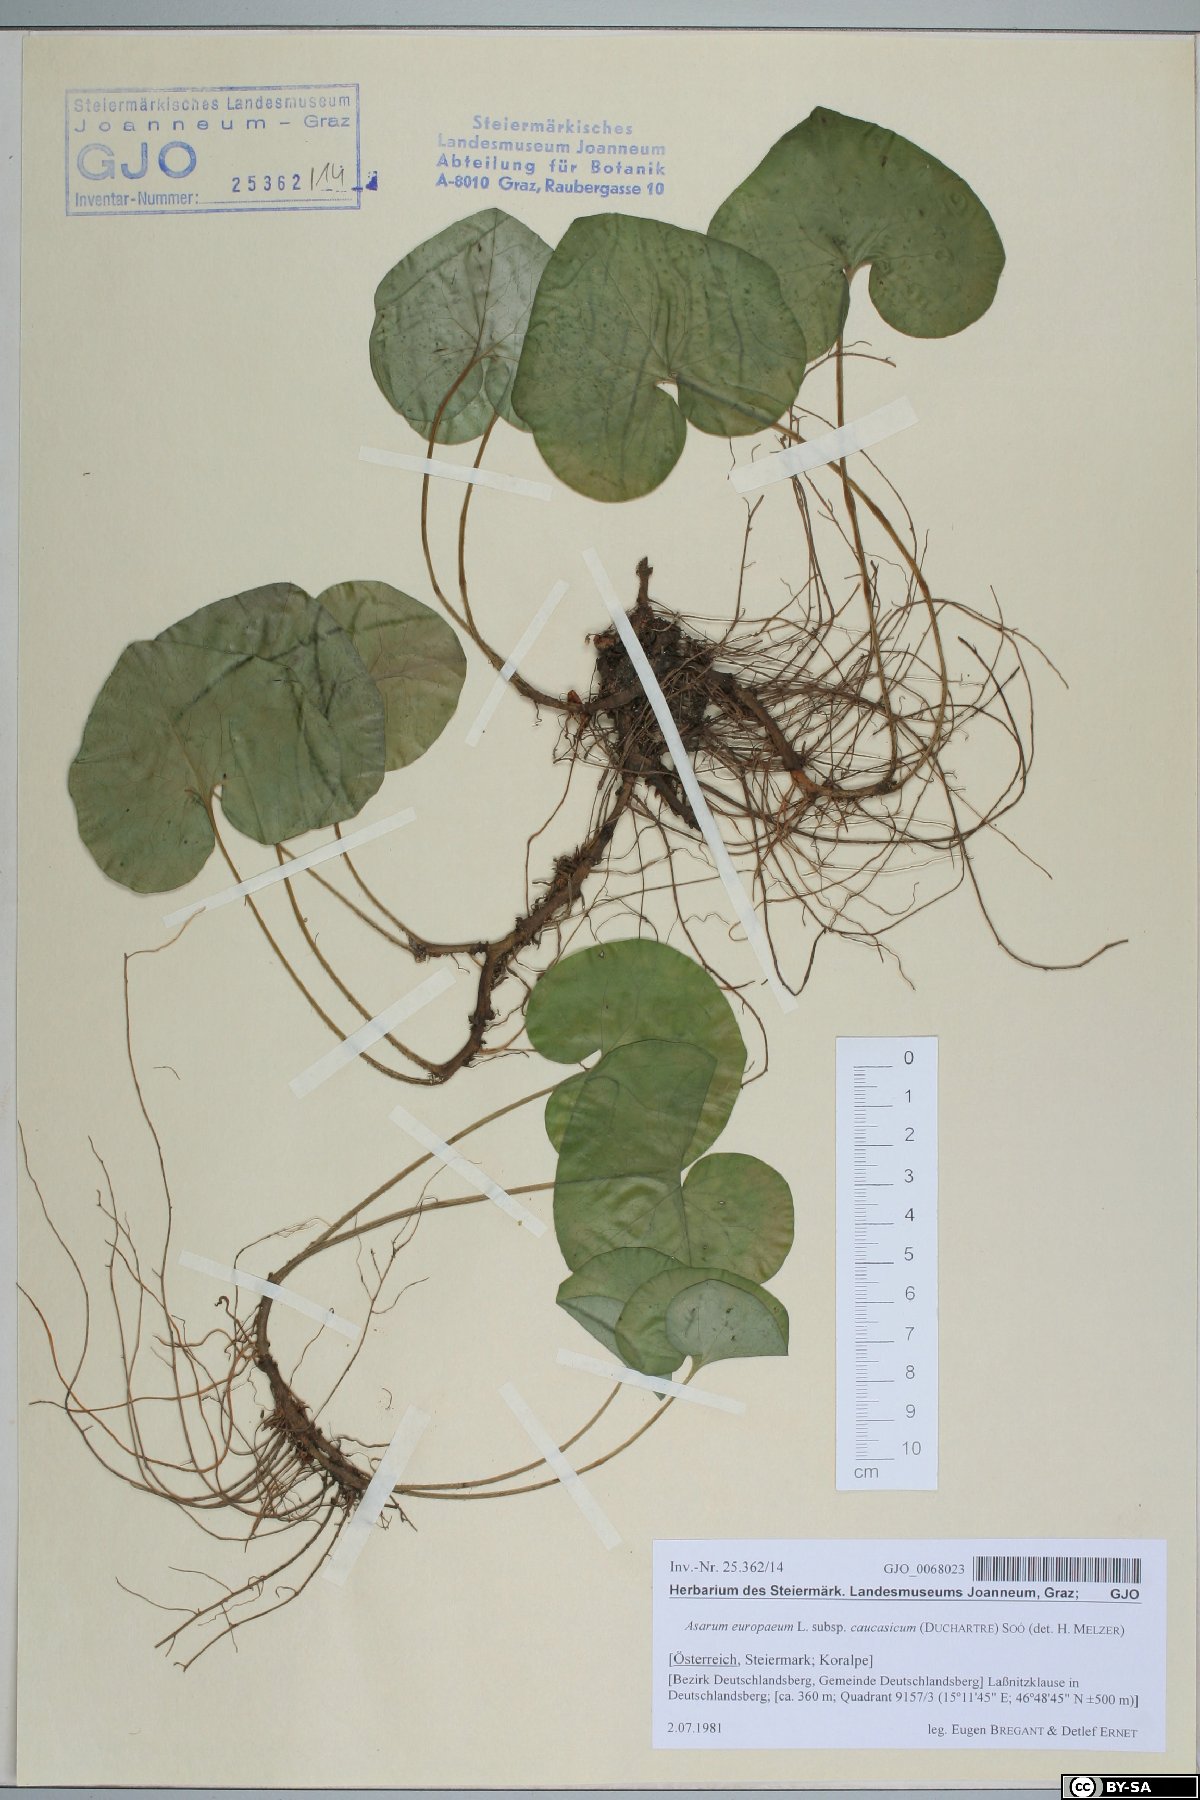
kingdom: Plantae
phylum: Tracheophyta
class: Magnoliopsida
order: Piperales
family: Aristolochiaceae
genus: Asarum
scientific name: Asarum europaeum
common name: Asarabacca
